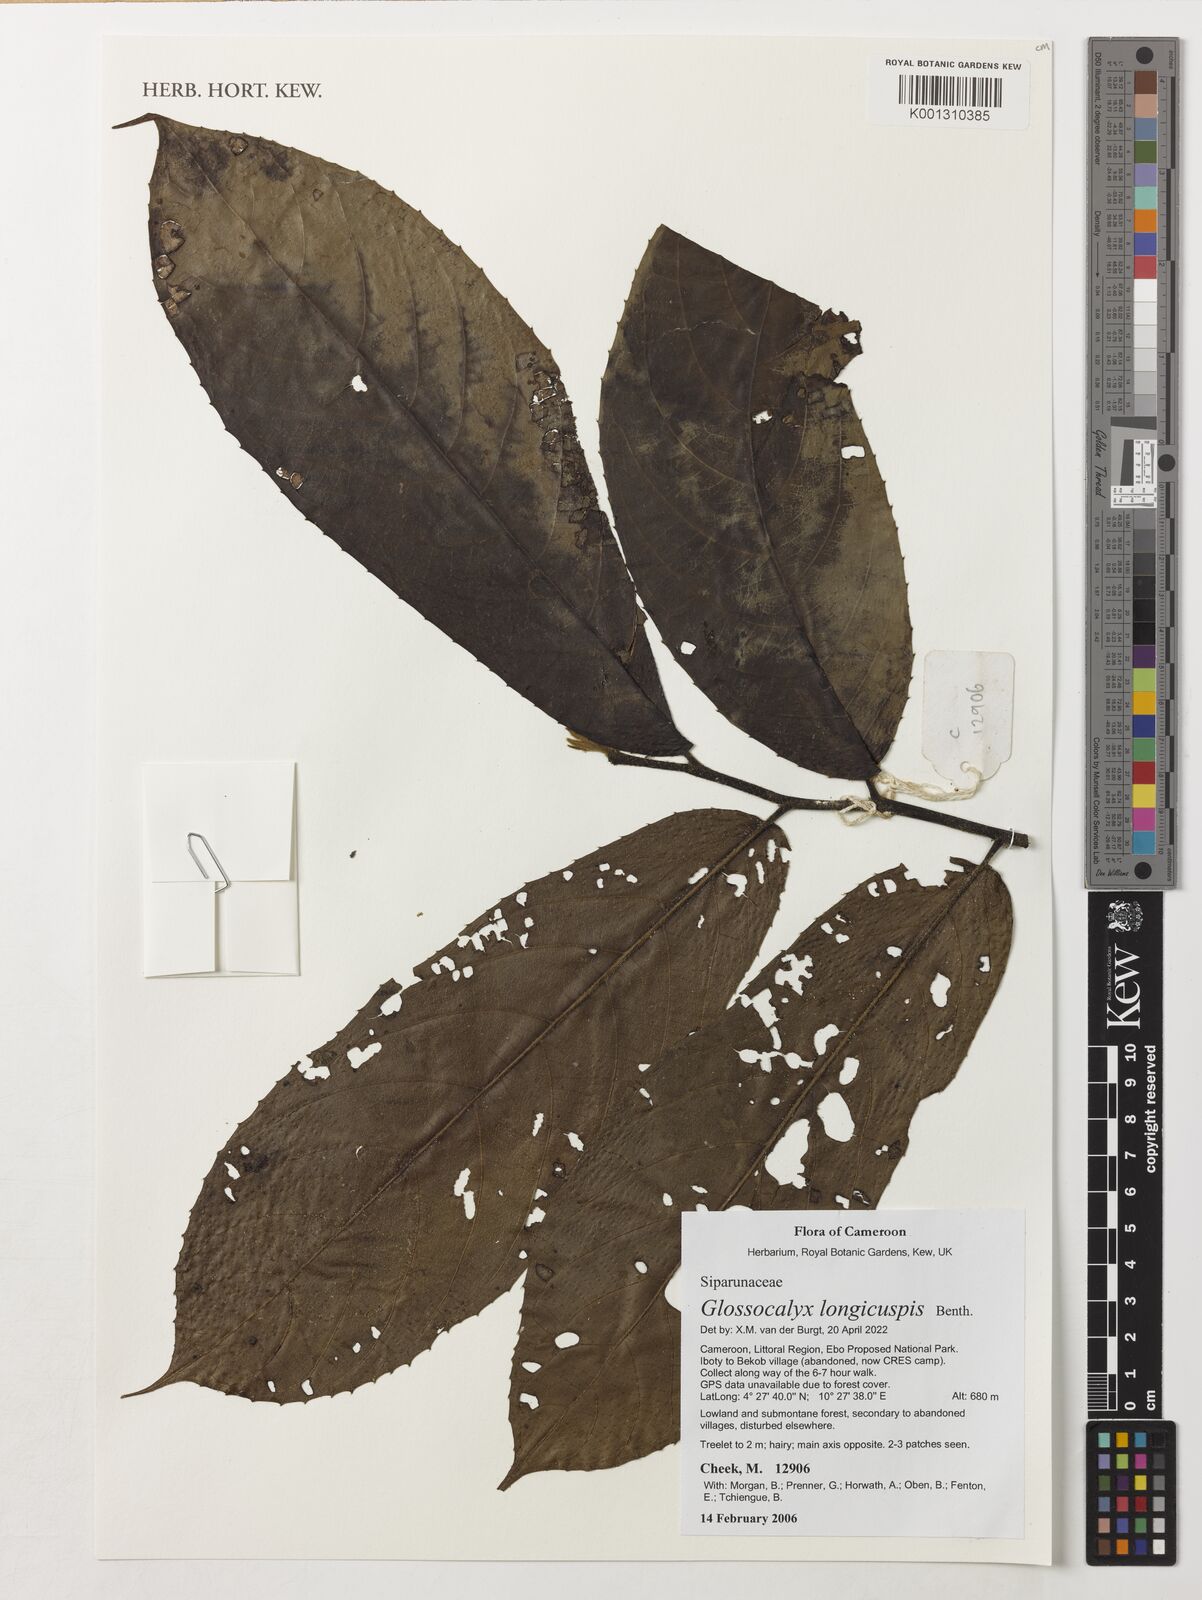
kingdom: Plantae
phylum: Tracheophyta
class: Magnoliopsida
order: Laurales
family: Siparunaceae
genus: Glossocalyx
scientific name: Glossocalyx longicuspis
